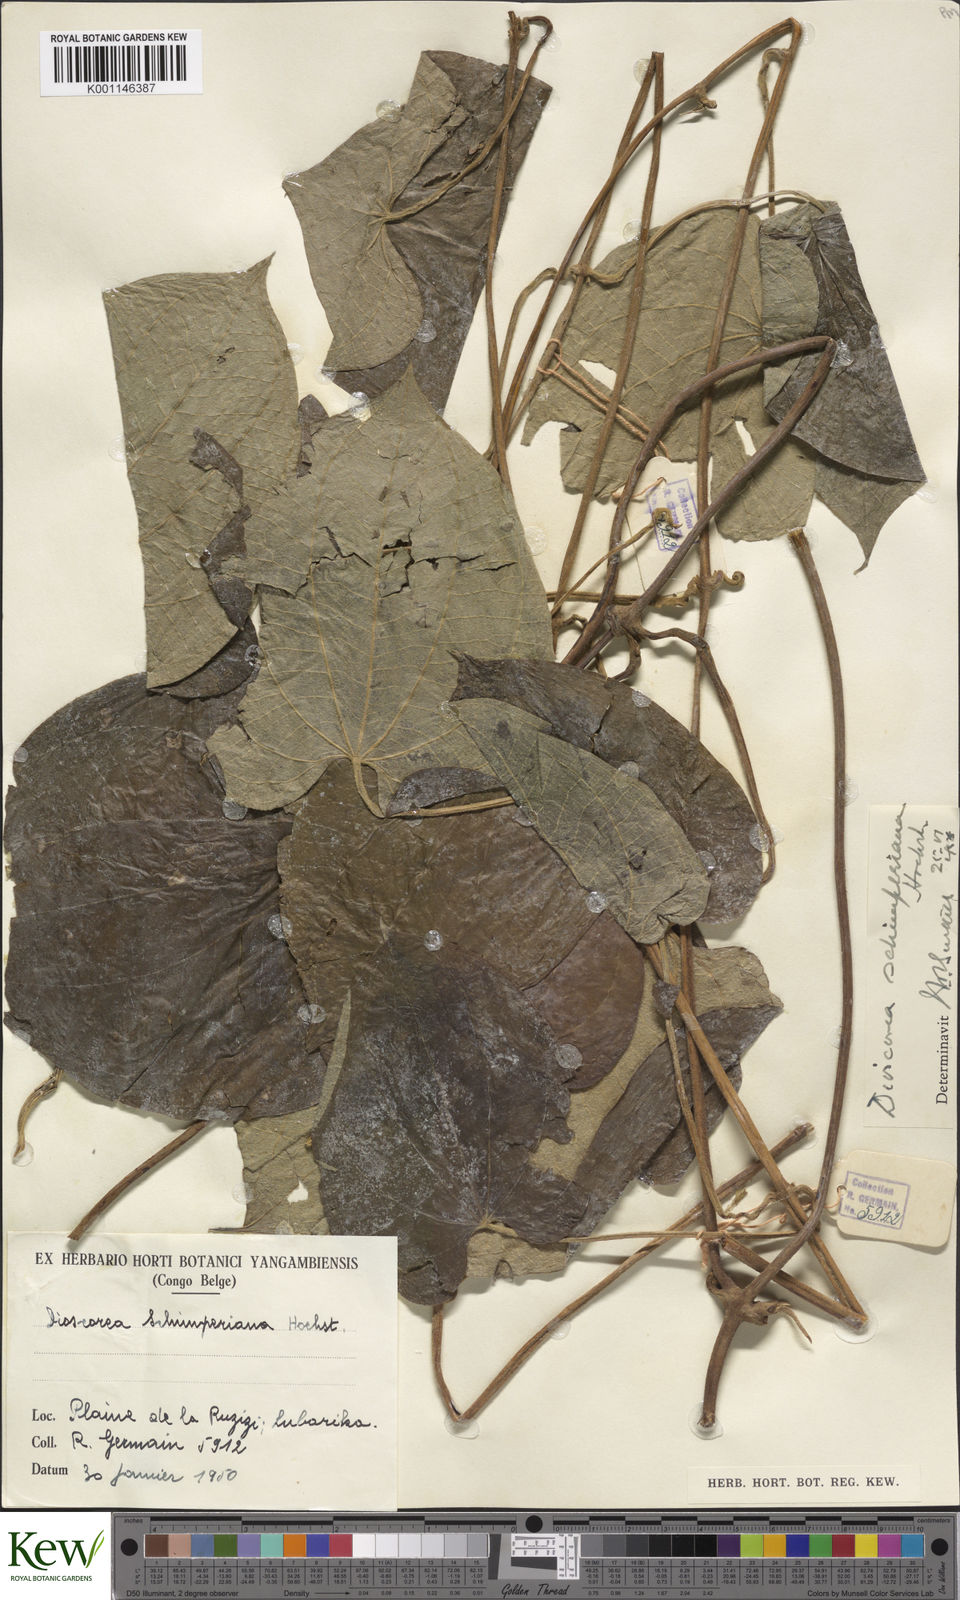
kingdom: Plantae
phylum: Tracheophyta
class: Liliopsida
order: Dioscoreales
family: Dioscoreaceae
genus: Dioscorea
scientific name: Dioscorea schimperiana
